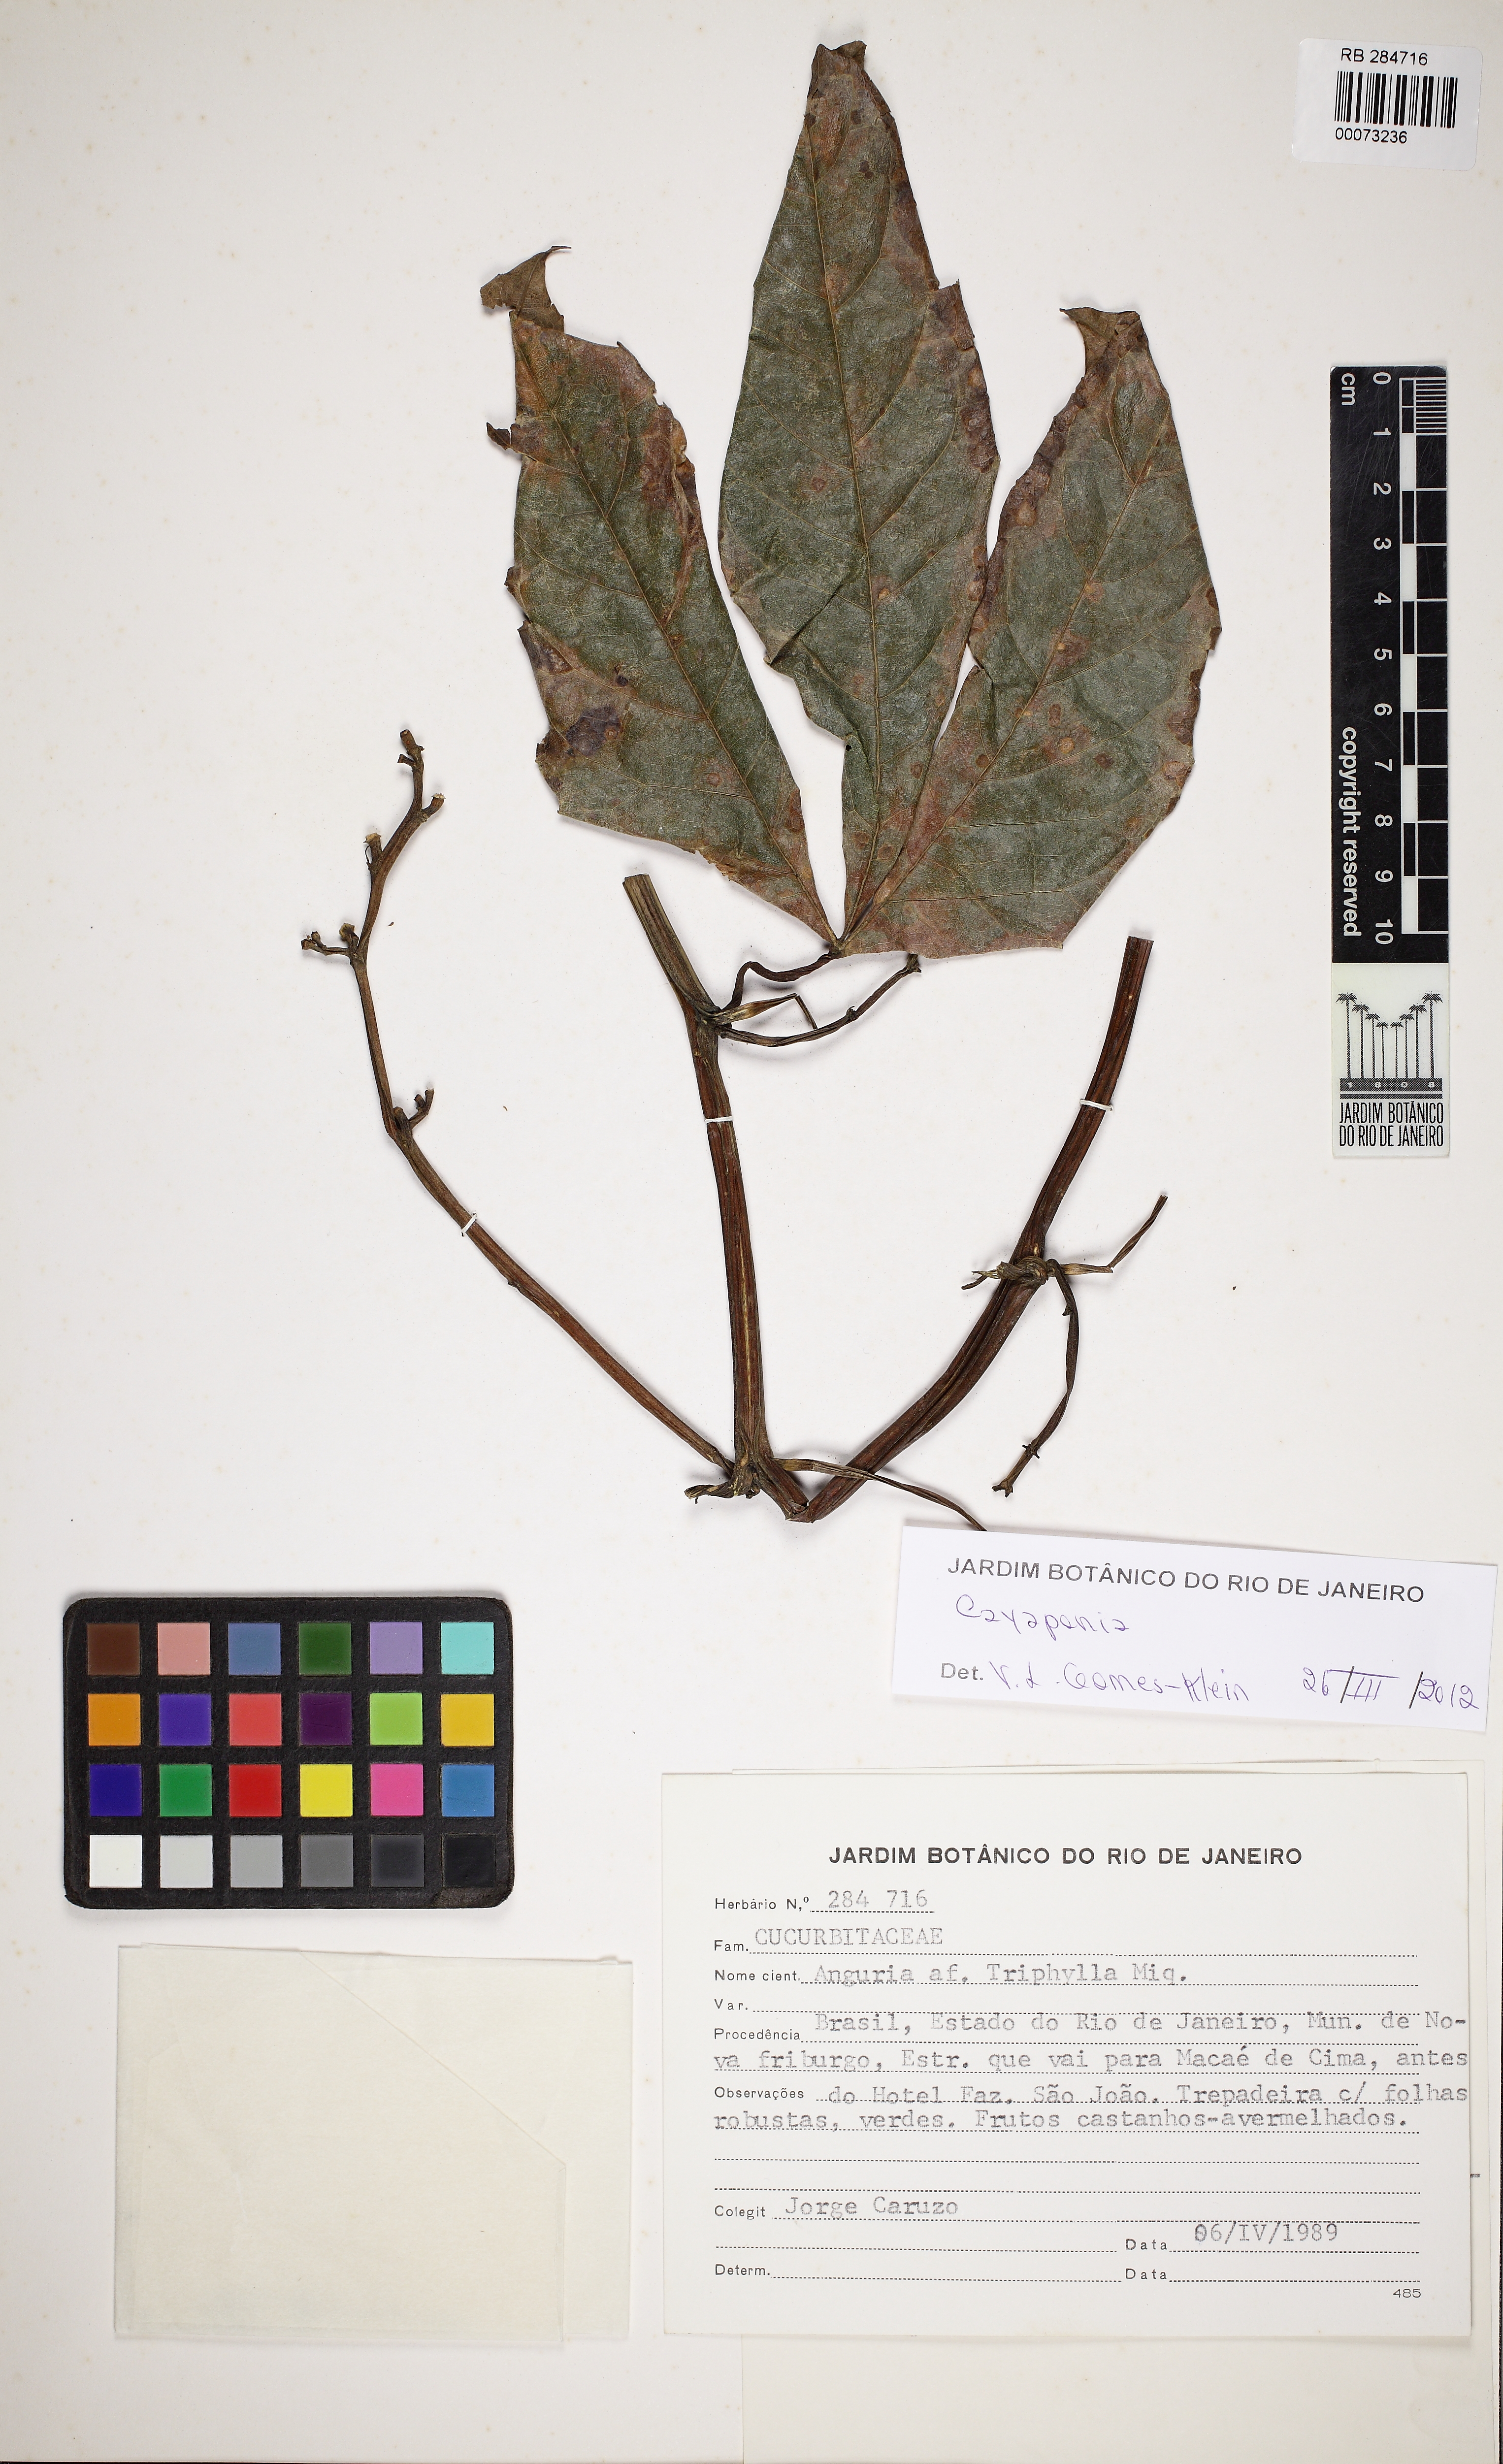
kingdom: Plantae
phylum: Tracheophyta
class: Magnoliopsida
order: Cucurbitales
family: Cucurbitaceae
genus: Cayaponia
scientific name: Cayaponia
